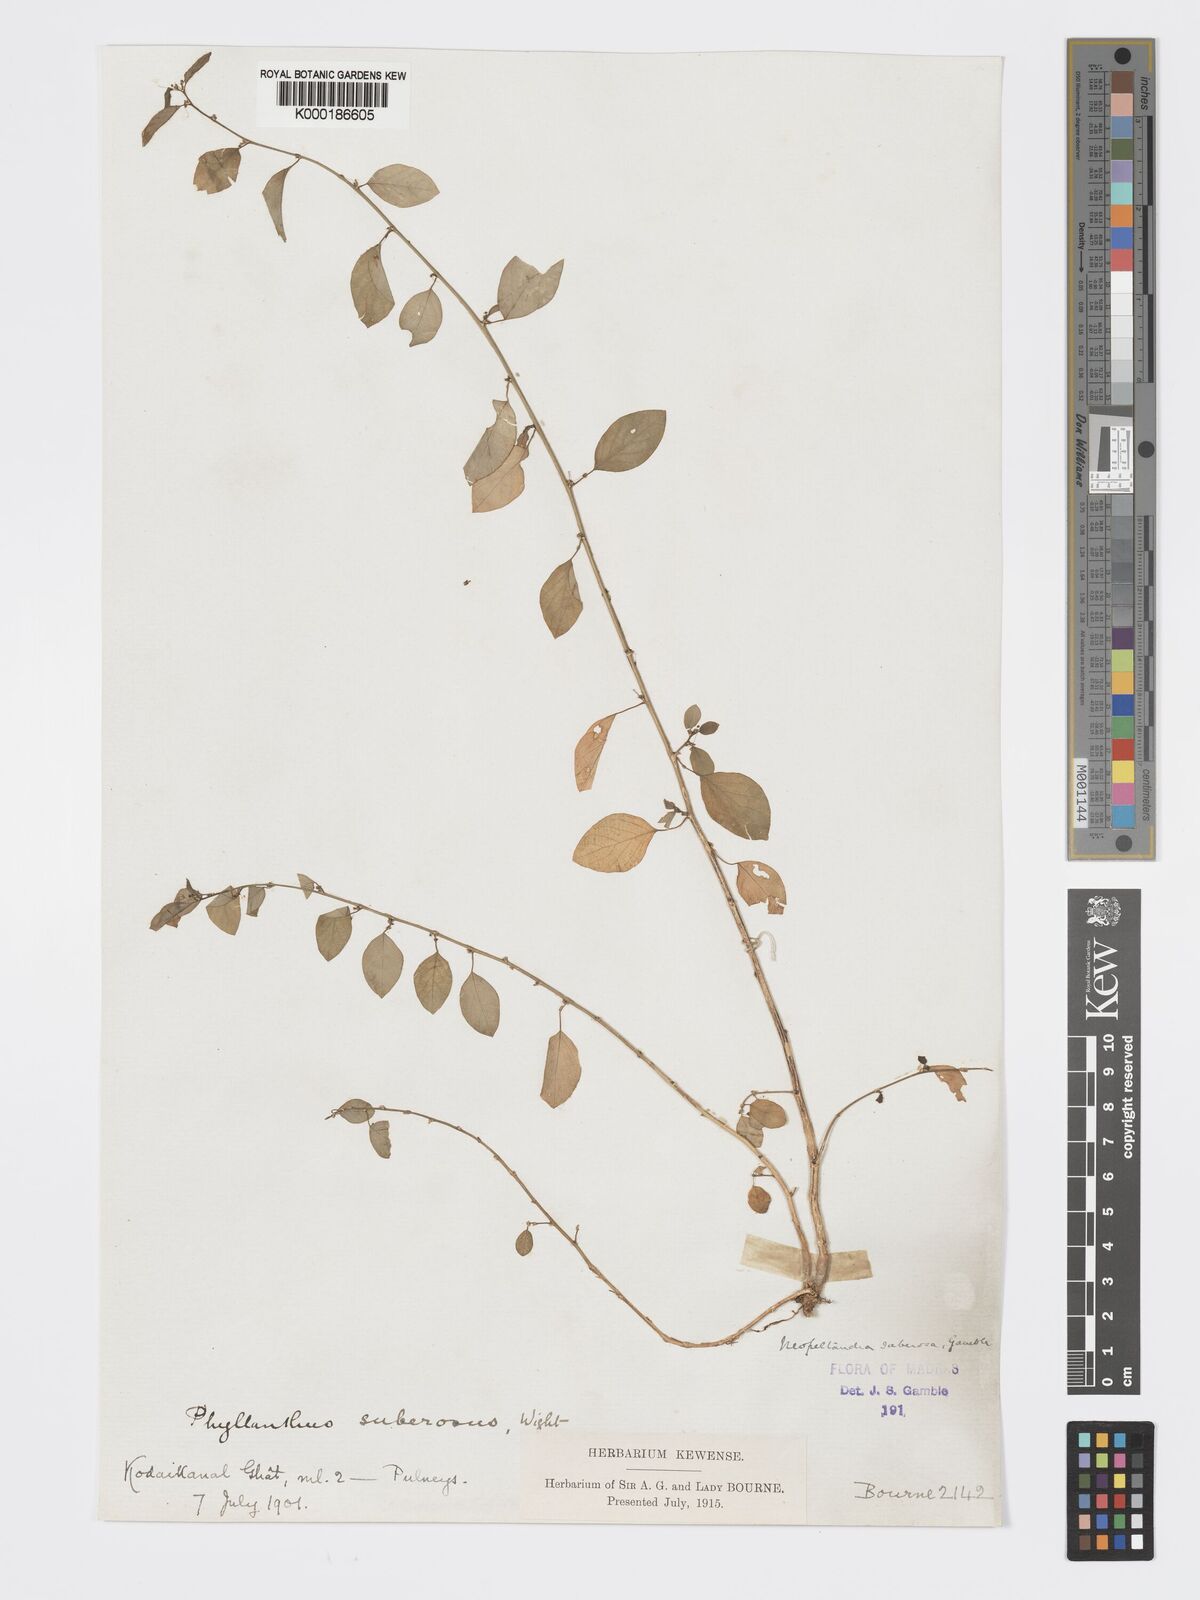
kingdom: Plantae
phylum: Tracheophyta
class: Magnoliopsida
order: Malpighiales
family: Phyllanthaceae
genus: Meineckia
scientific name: Meineckia parvifolia
